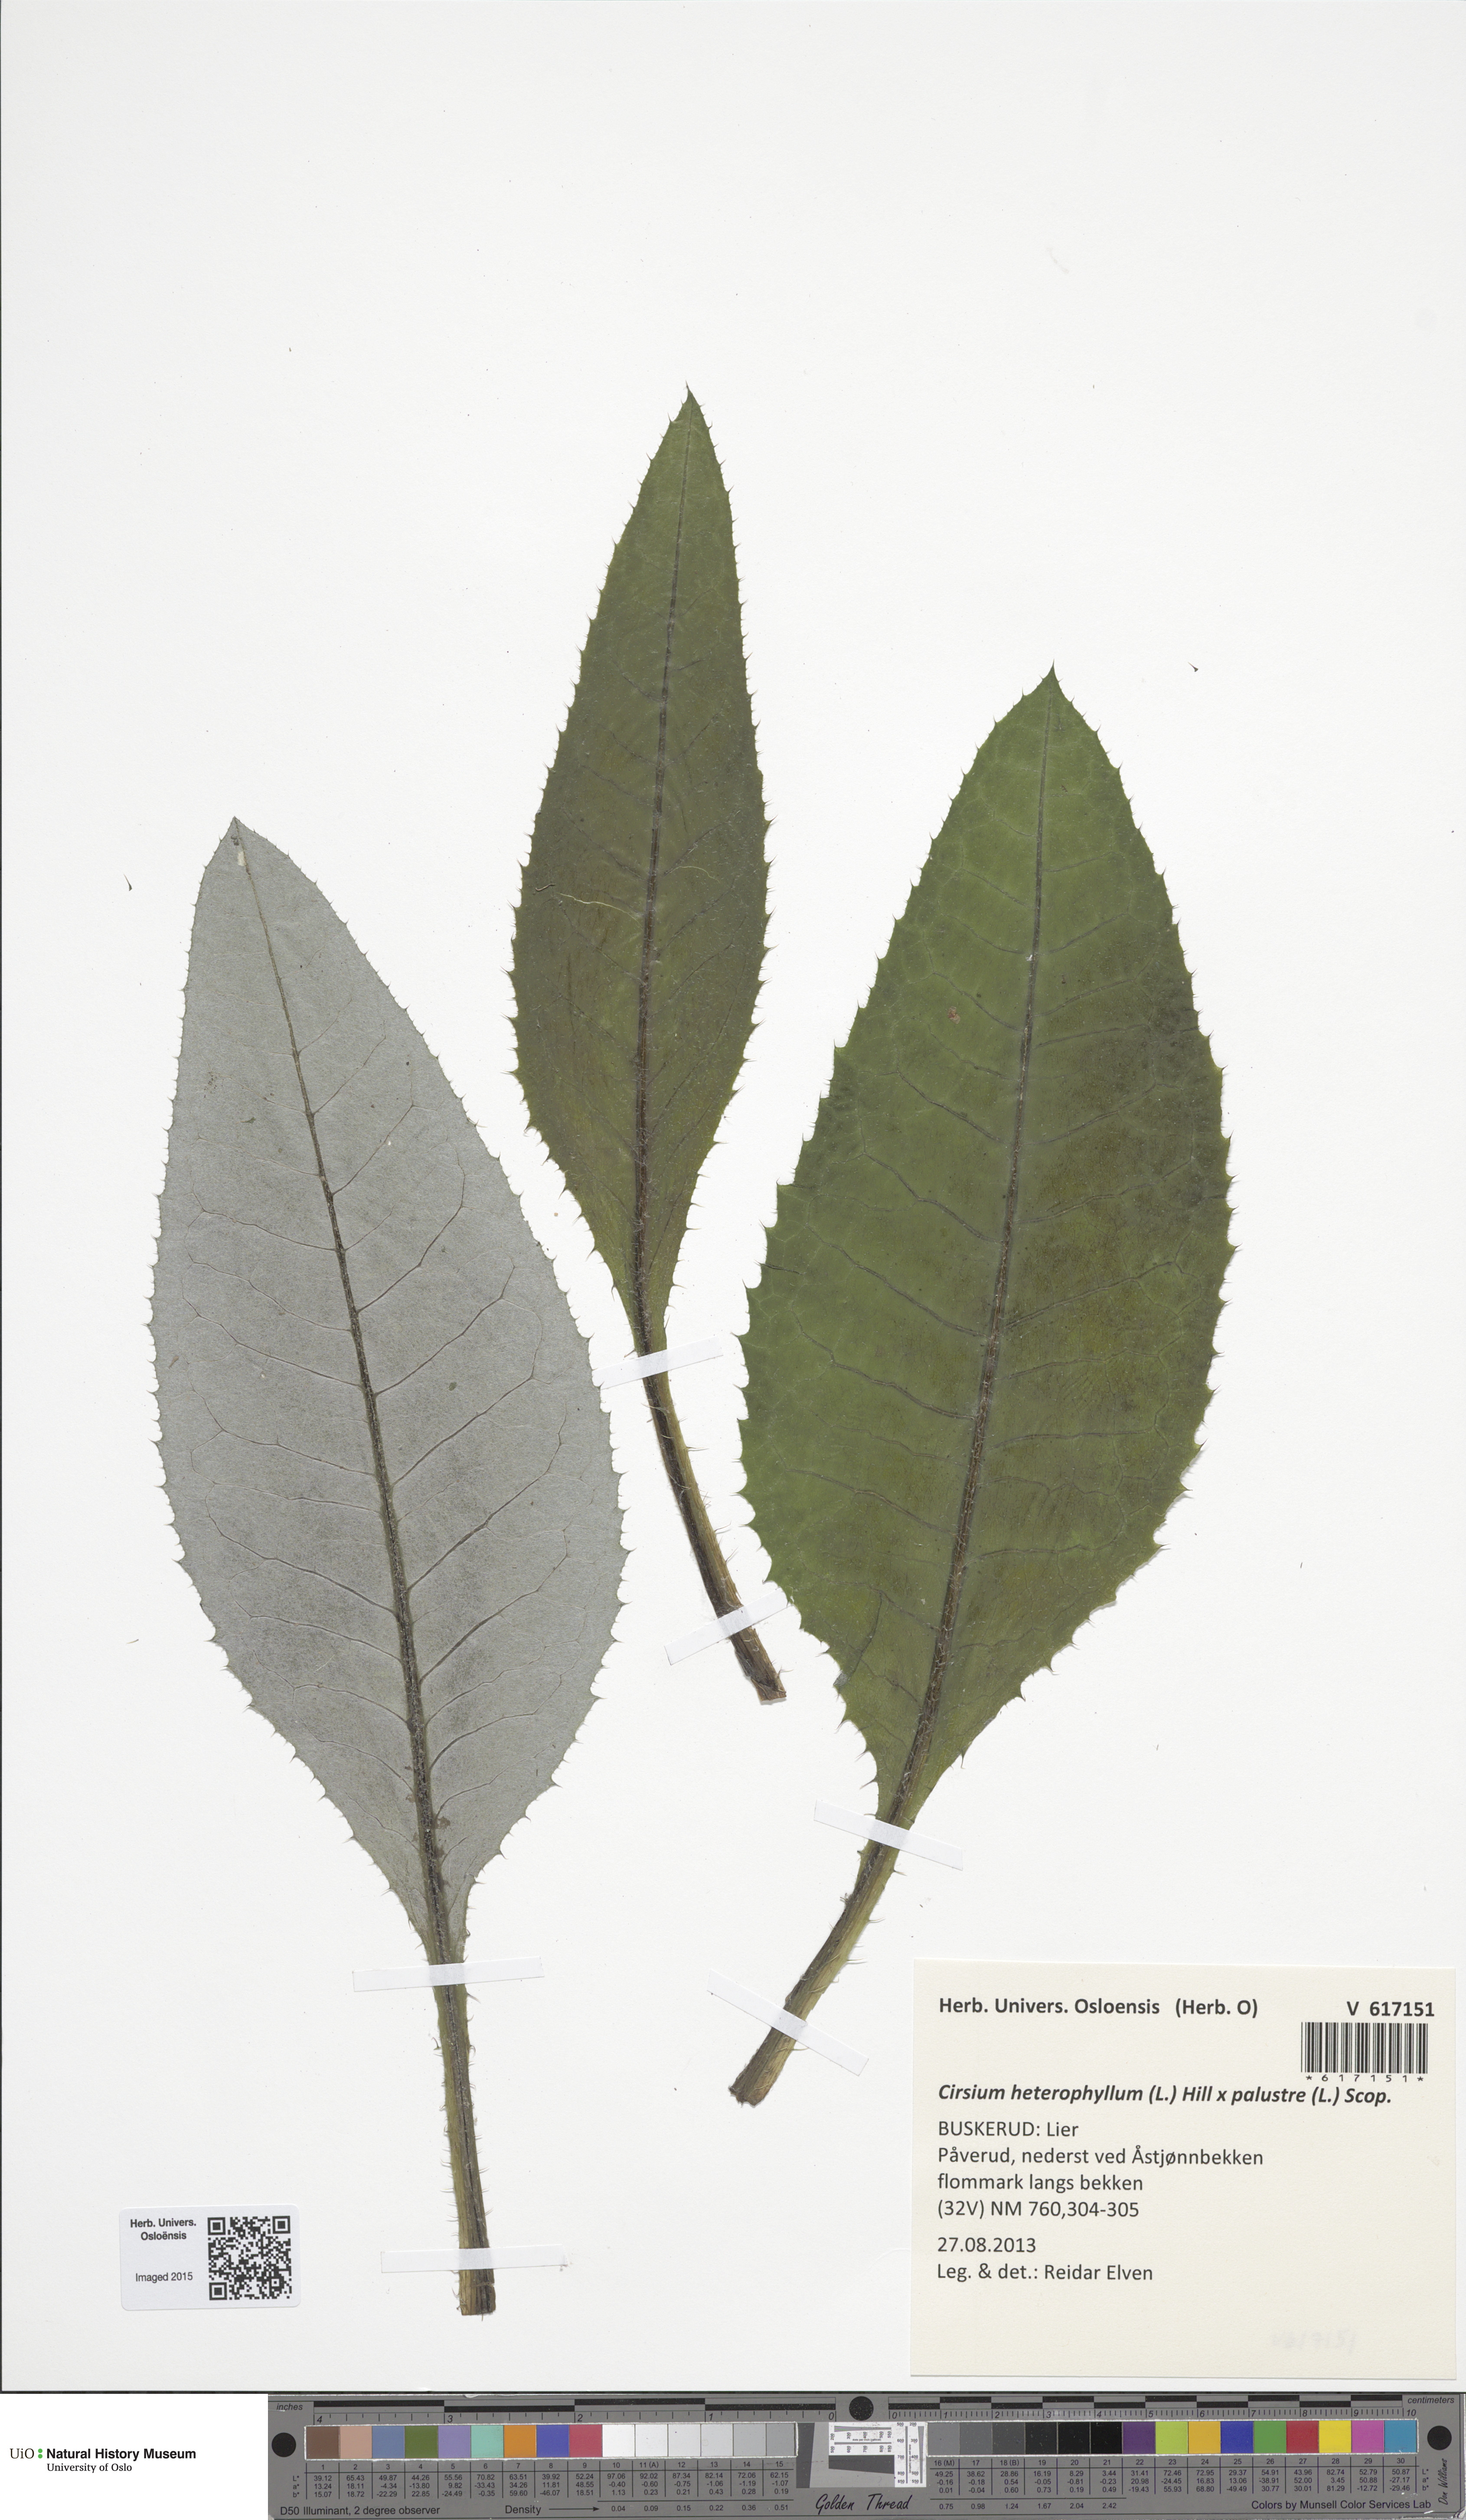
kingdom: Plantae
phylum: Tracheophyta
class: Magnoliopsida
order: Asterales
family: Asteraceae
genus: Cirsium
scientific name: Cirsium
